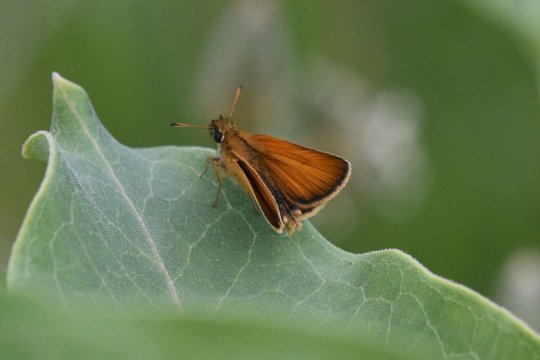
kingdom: Animalia
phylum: Arthropoda
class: Insecta
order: Lepidoptera
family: Hesperiidae
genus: Thymelicus
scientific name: Thymelicus lineola
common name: European Skipper
